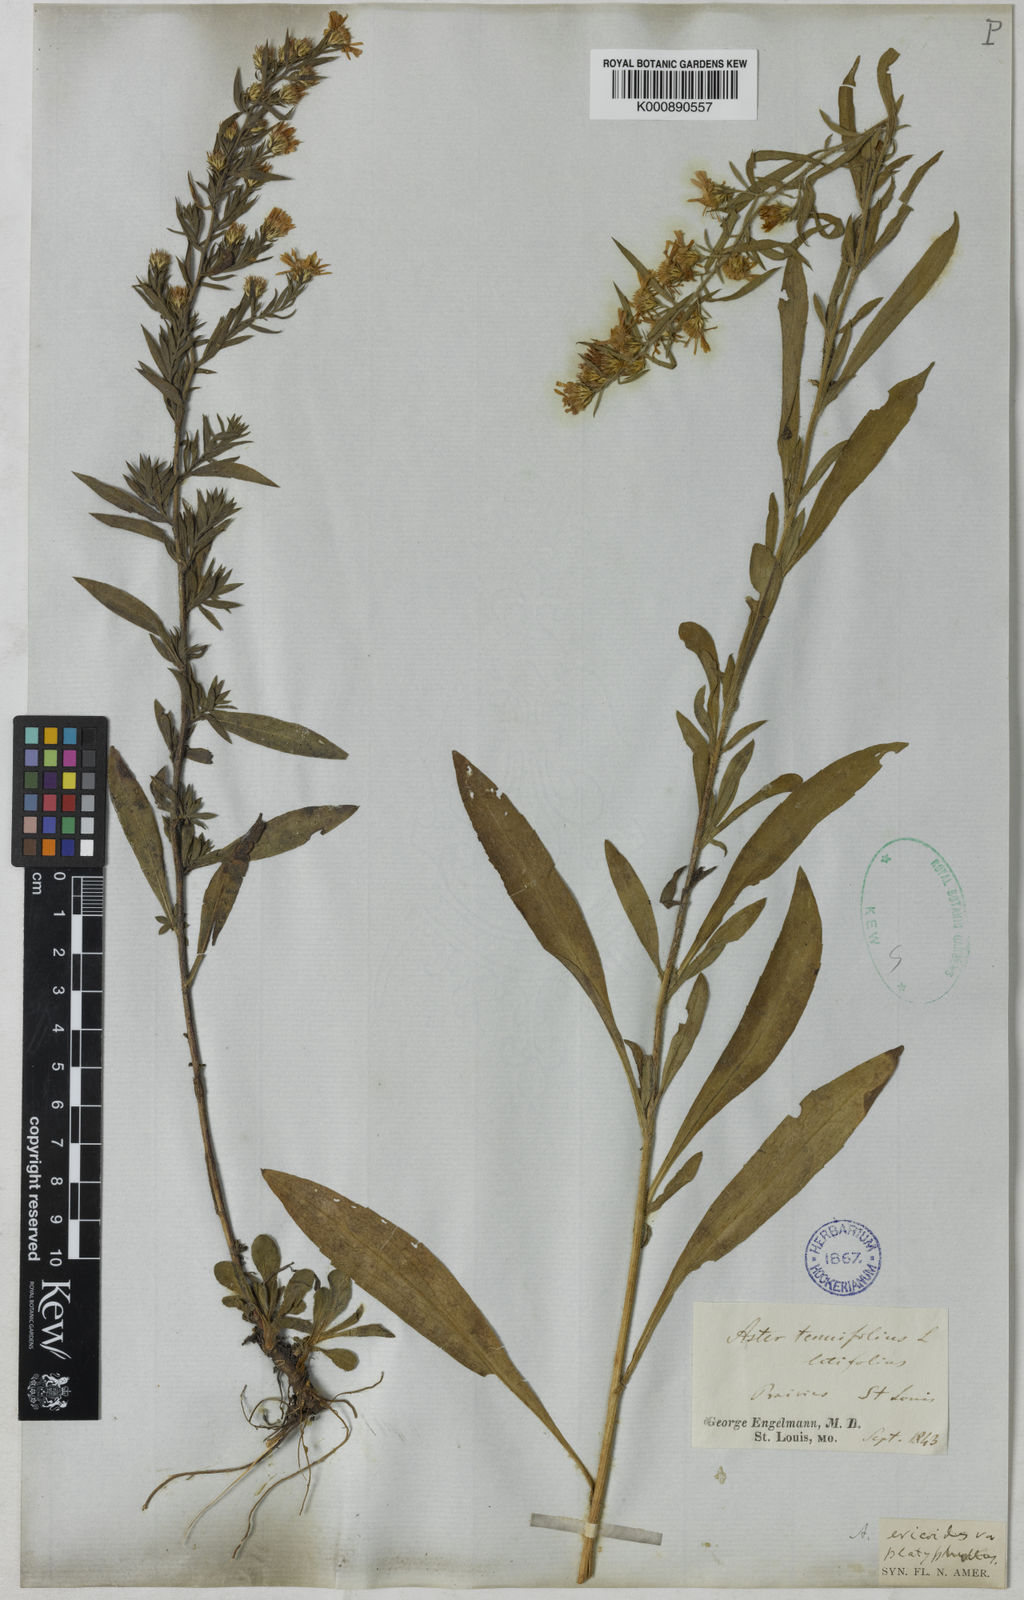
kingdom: Plantae
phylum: Tracheophyta
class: Magnoliopsida
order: Asterales
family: Asteraceae
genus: Symphyotrichum
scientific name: Symphyotrichum pilosum
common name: Awl aster
